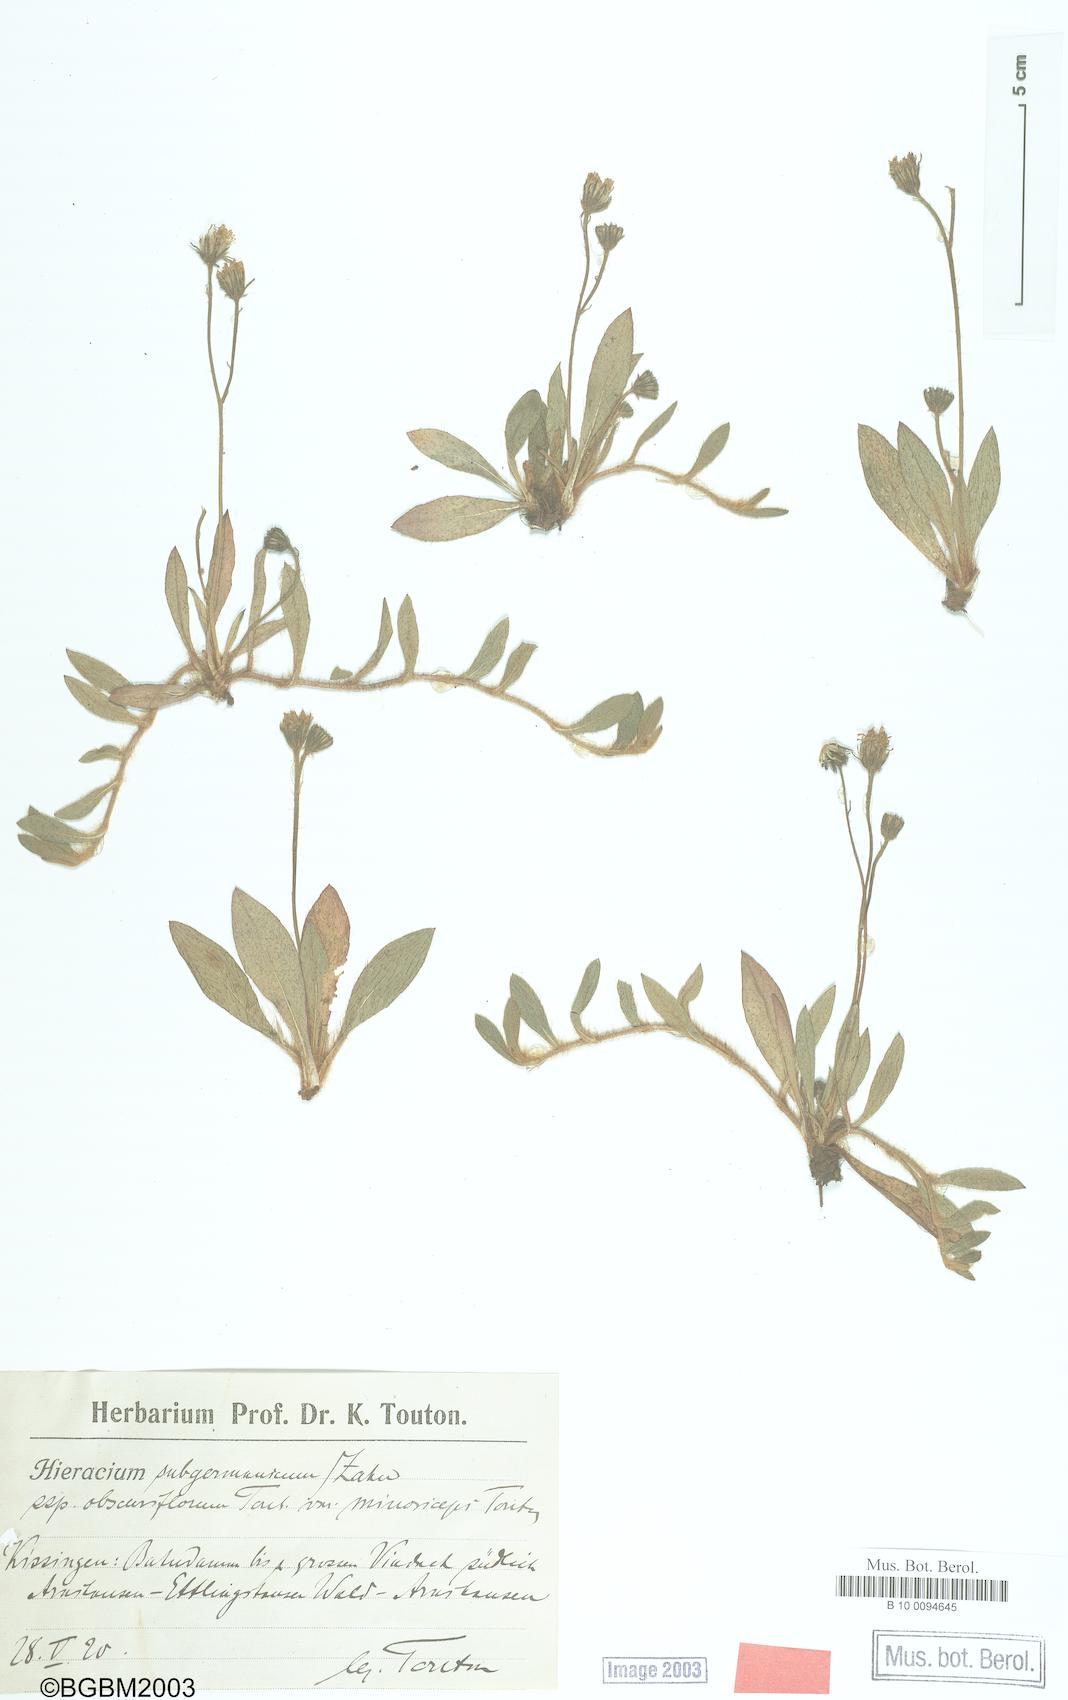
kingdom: Plantae
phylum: Tracheophyta
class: Magnoliopsida
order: Asterales
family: Asteraceae
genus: Hieracium
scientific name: Hieracium subgermanicum
